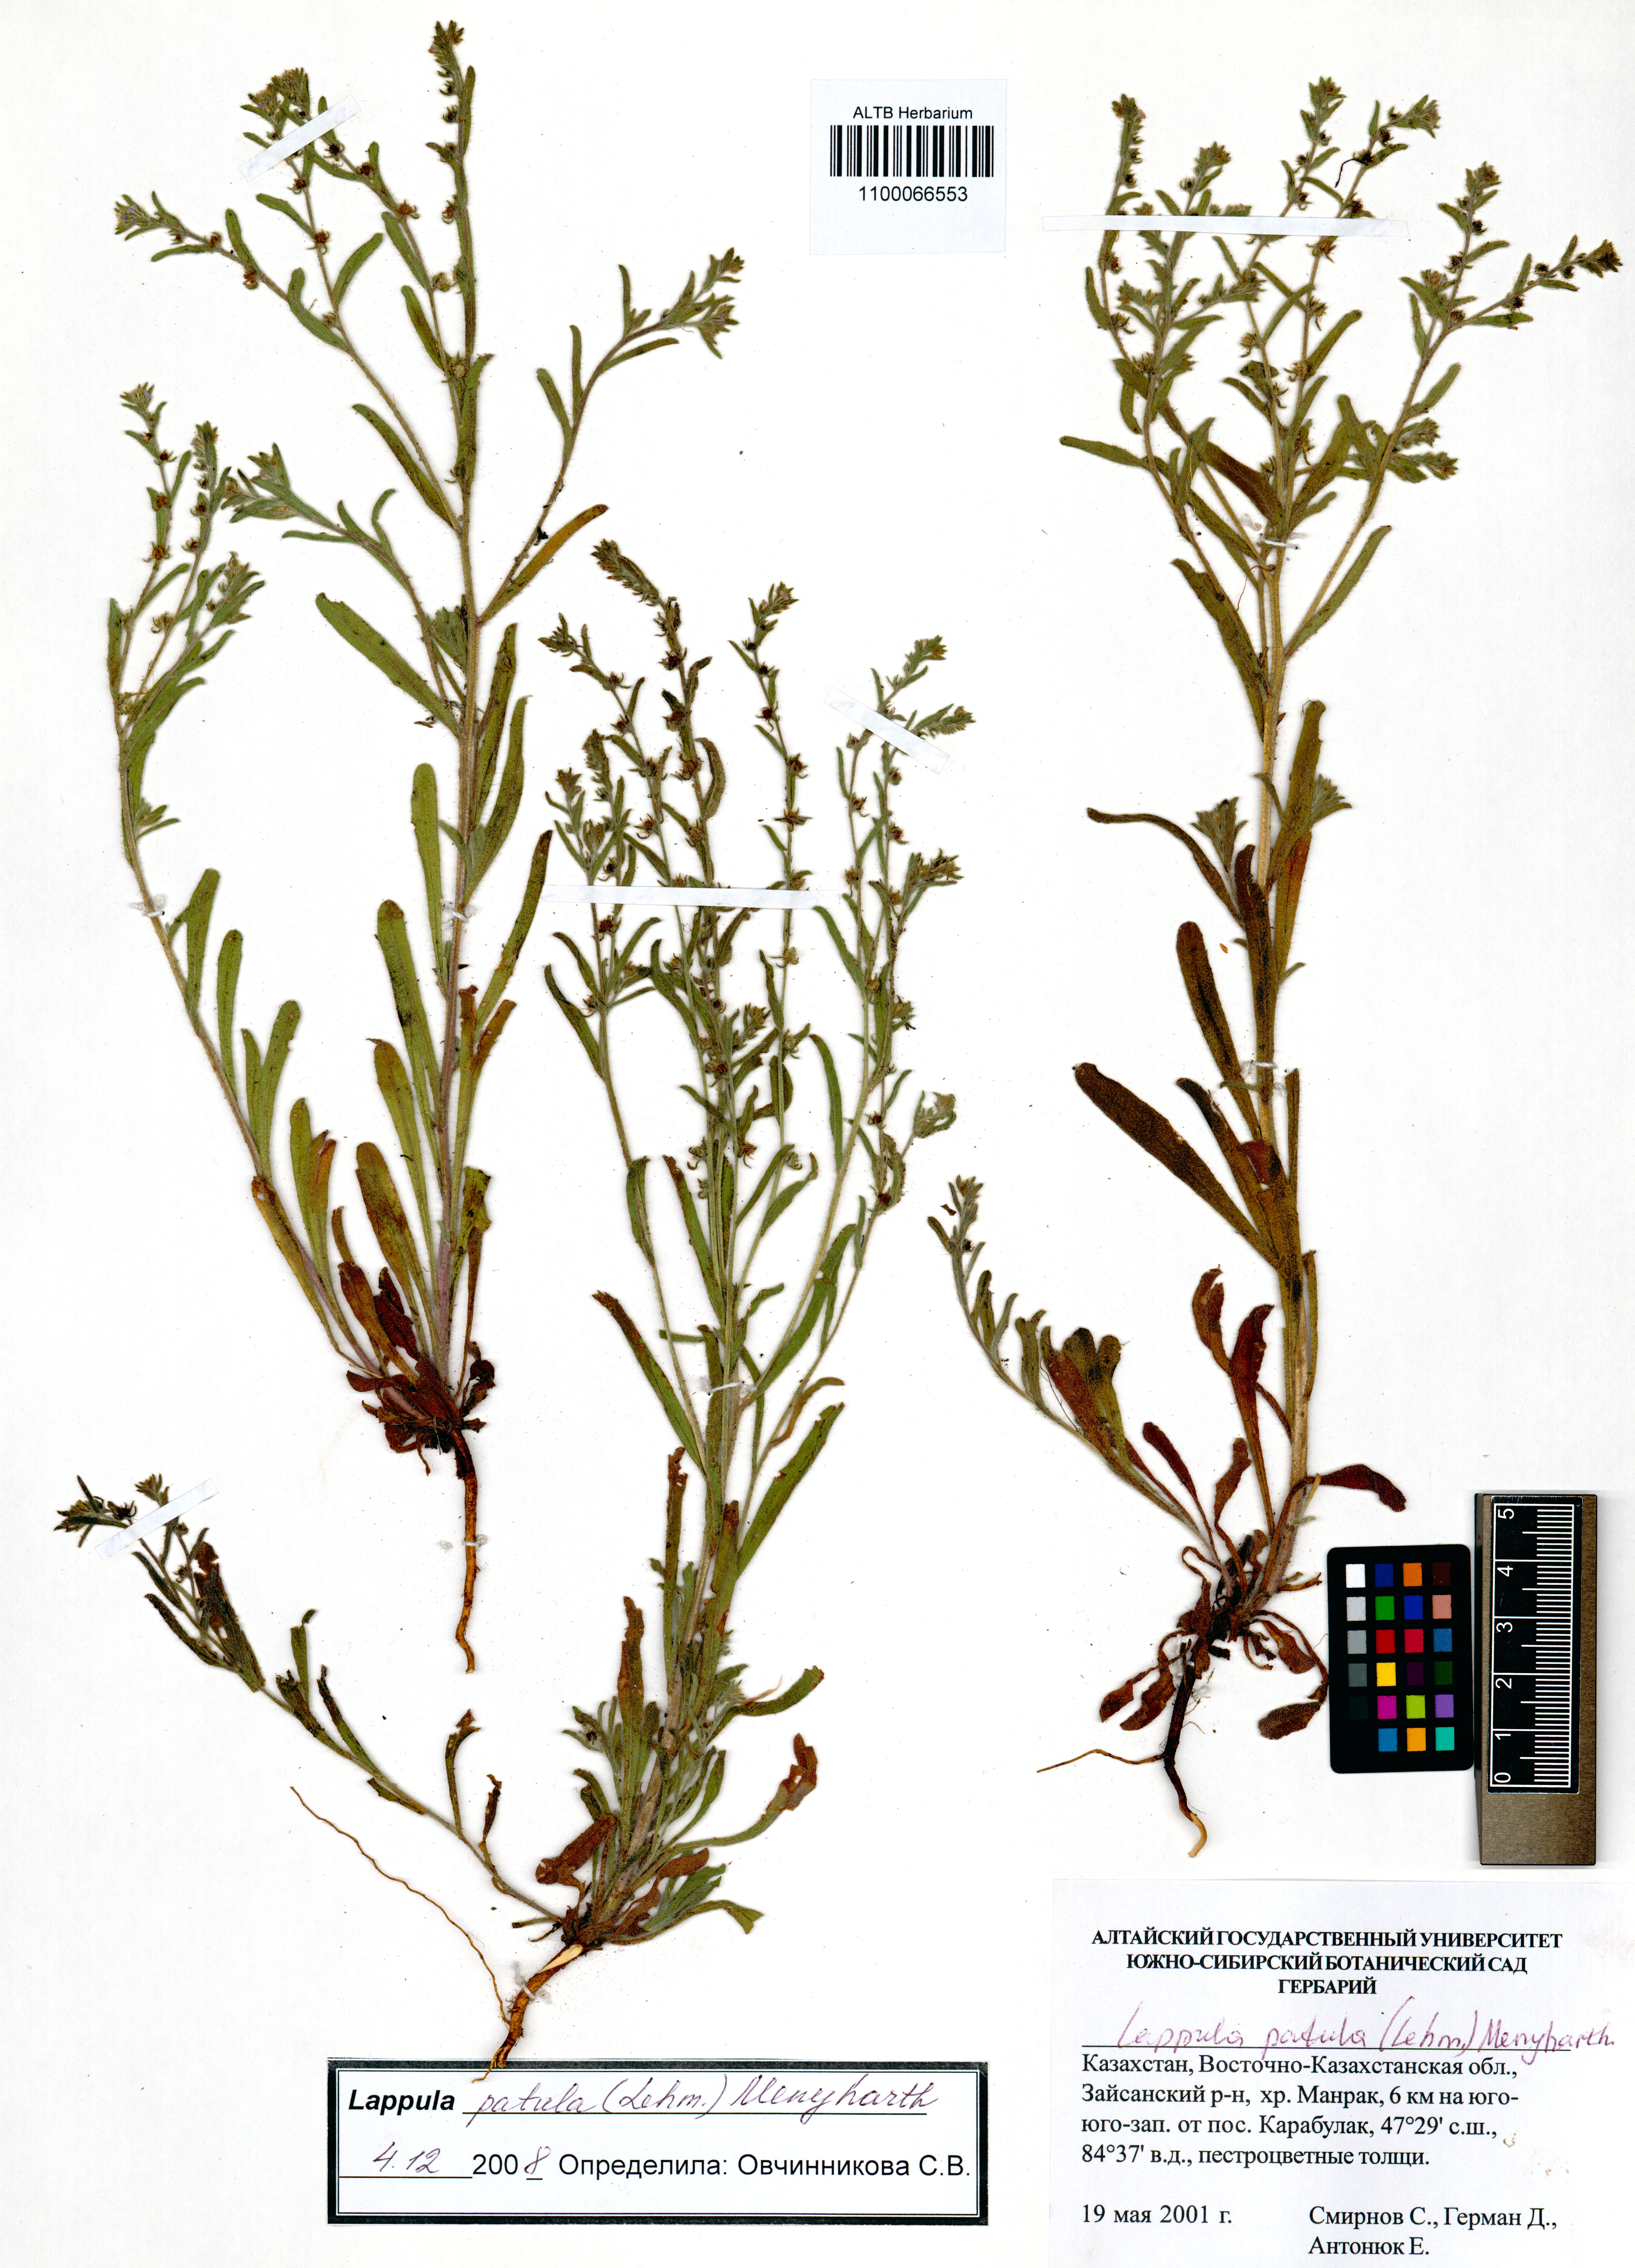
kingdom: Plantae
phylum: Tracheophyta
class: Magnoliopsida
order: Boraginales
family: Boraginaceae
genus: Lappula
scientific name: Lappula patula
